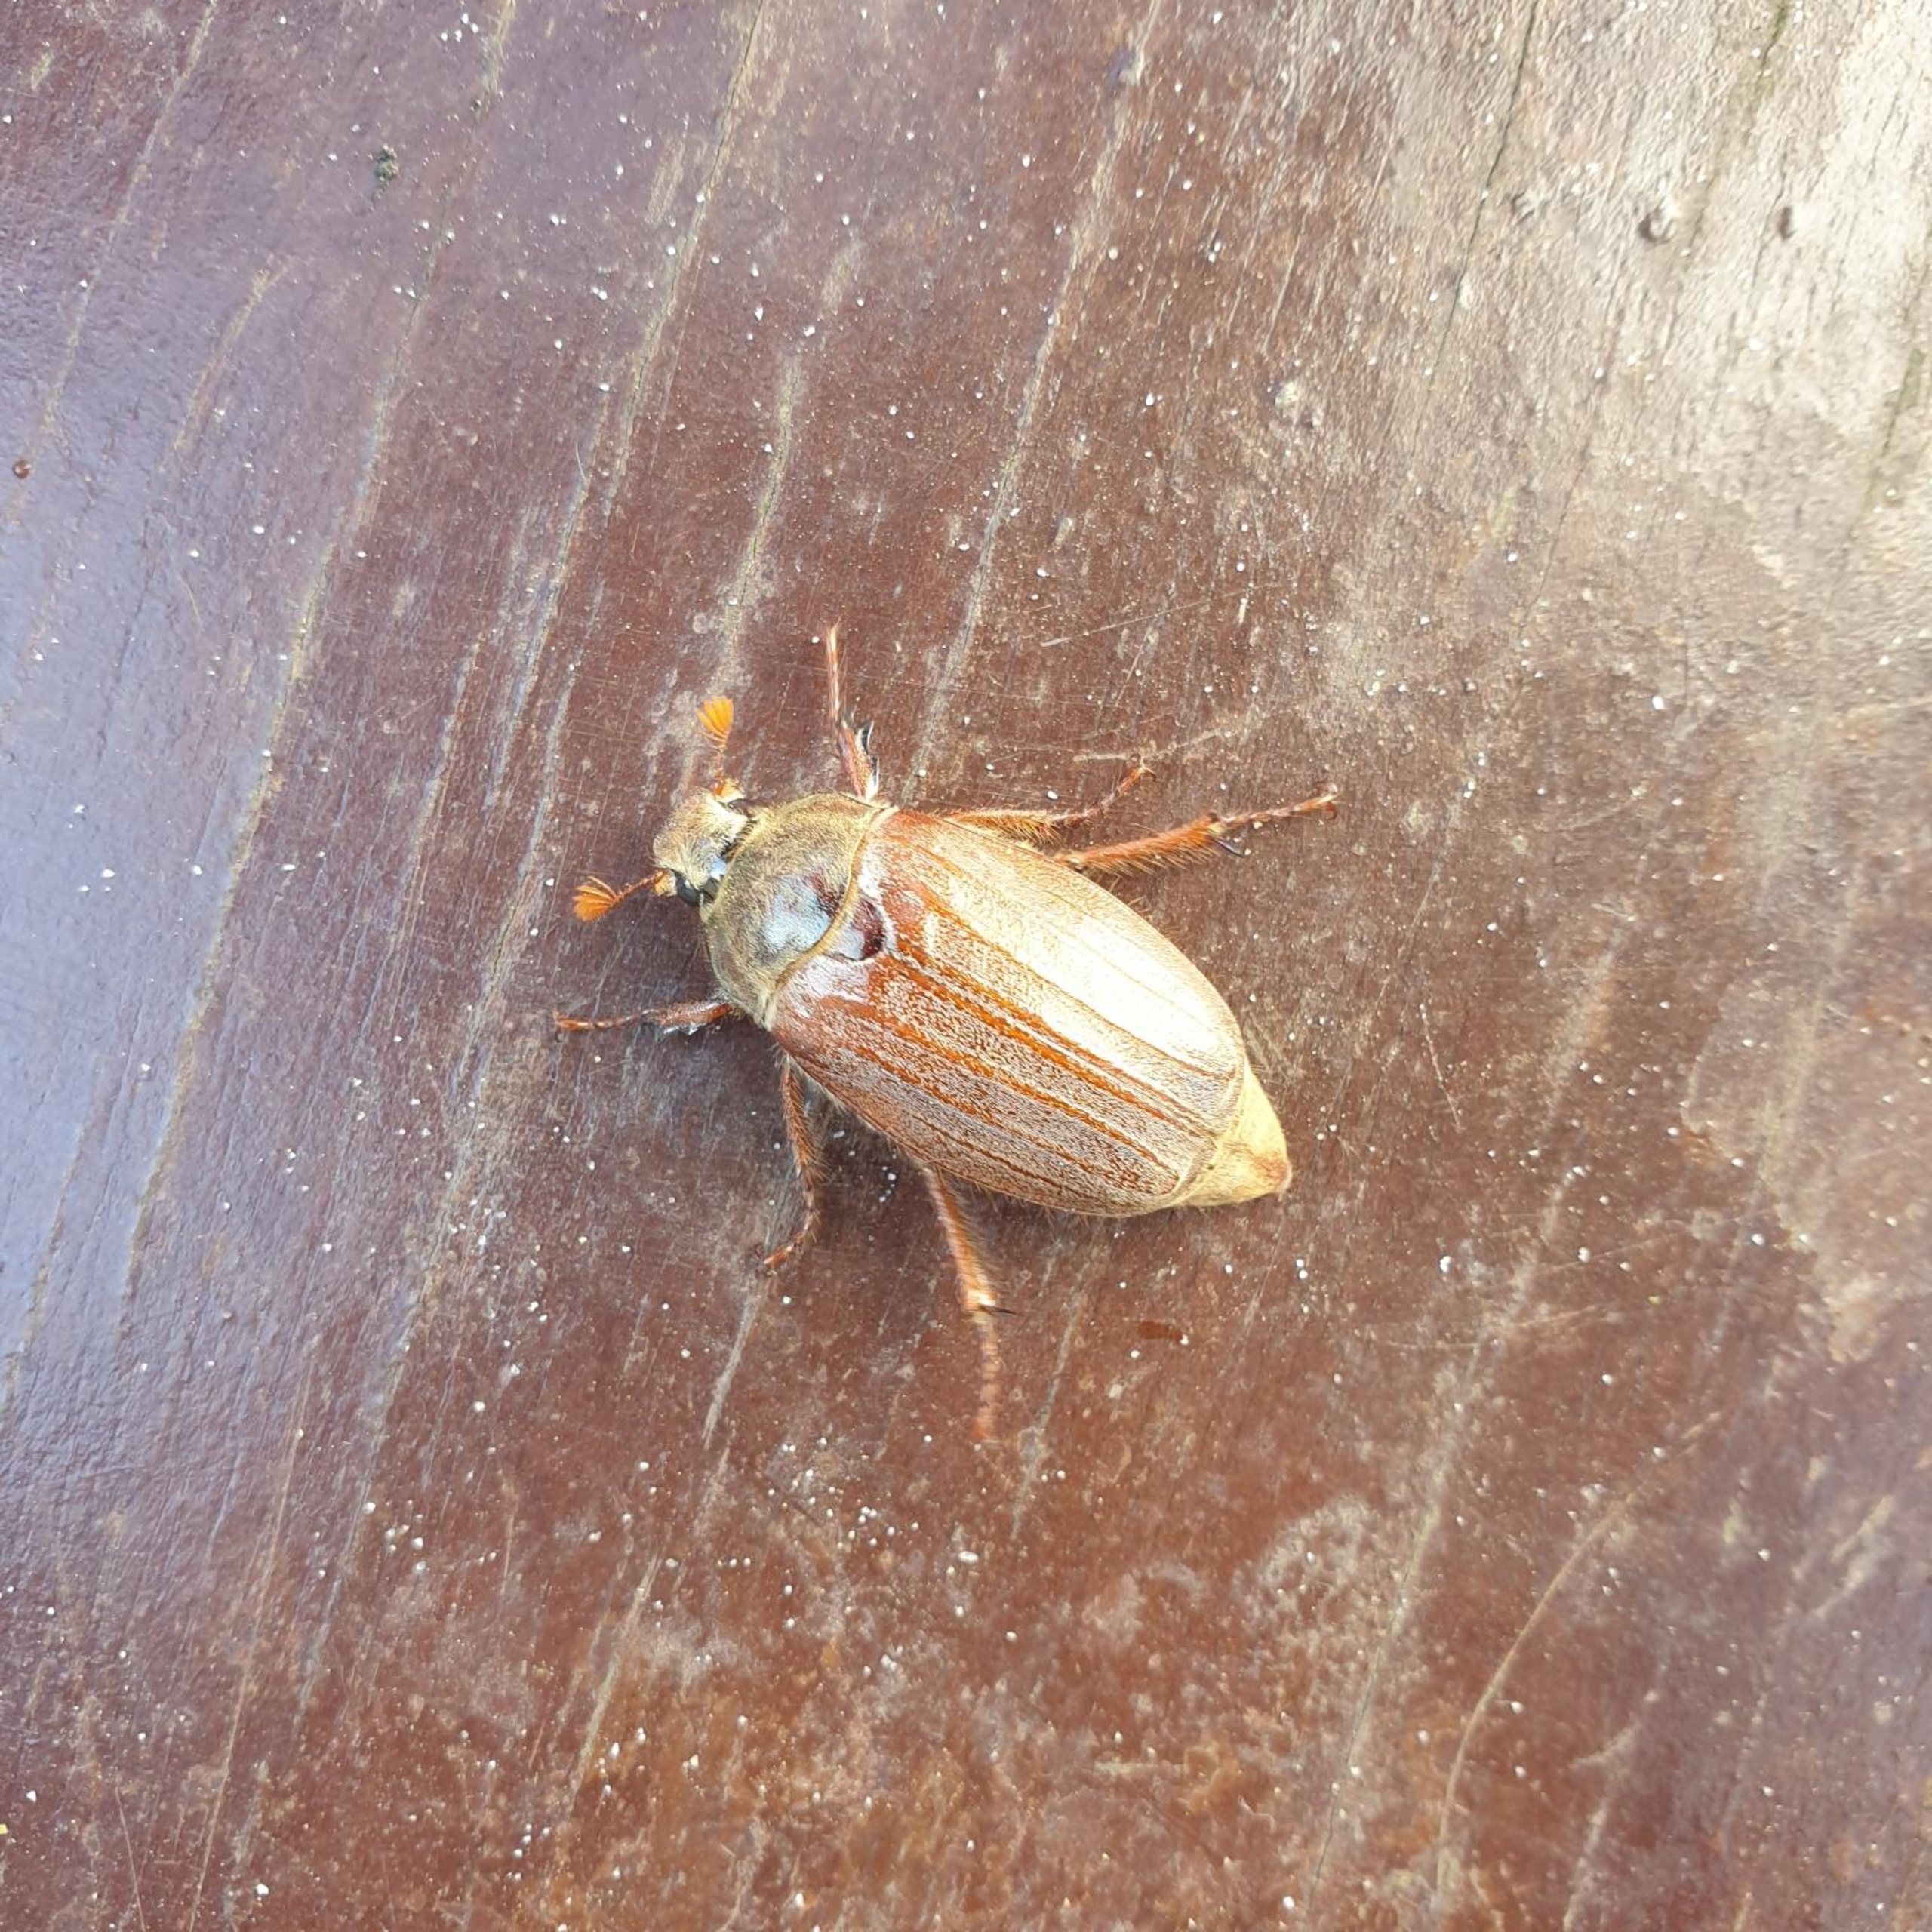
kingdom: Animalia
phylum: Arthropoda
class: Insecta
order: Coleoptera
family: Scarabaeidae
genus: Melolontha
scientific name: Melolontha melolontha
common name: Almindelig oldenborre
